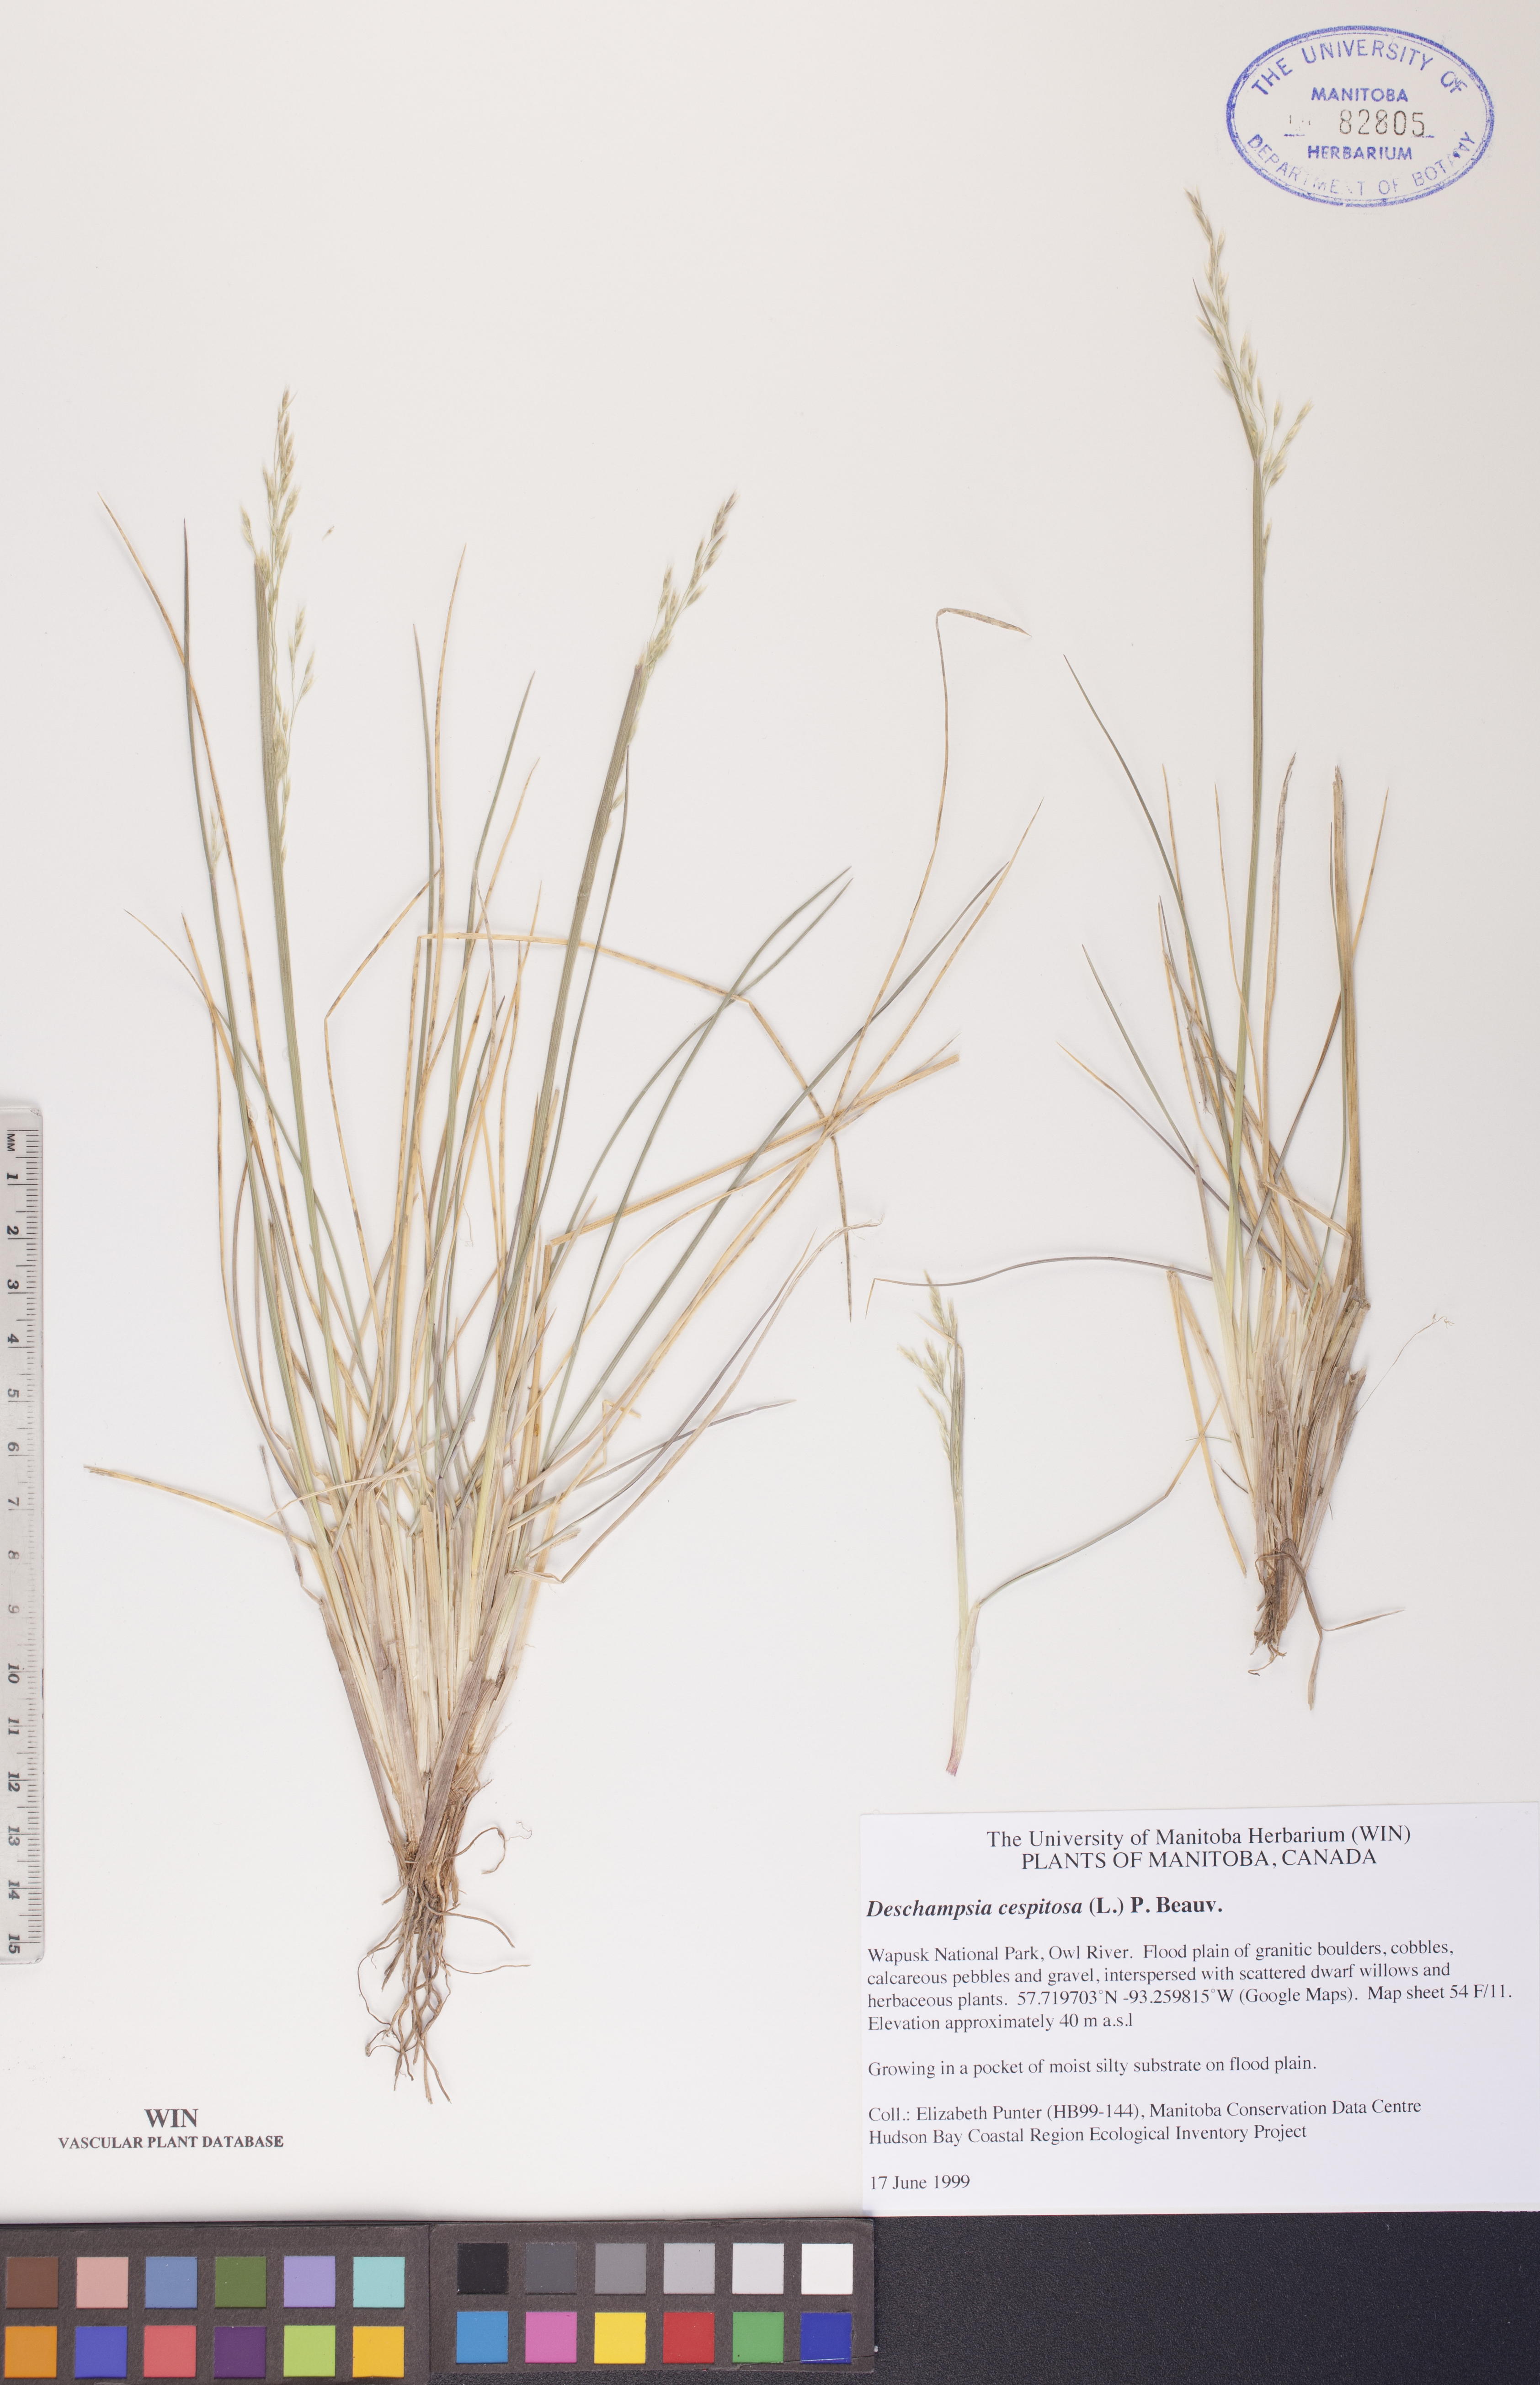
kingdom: Plantae
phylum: Tracheophyta
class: Liliopsida
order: Poales
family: Poaceae
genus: Deschampsia
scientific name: Deschampsia cespitosa
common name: Tufted hair-grass
